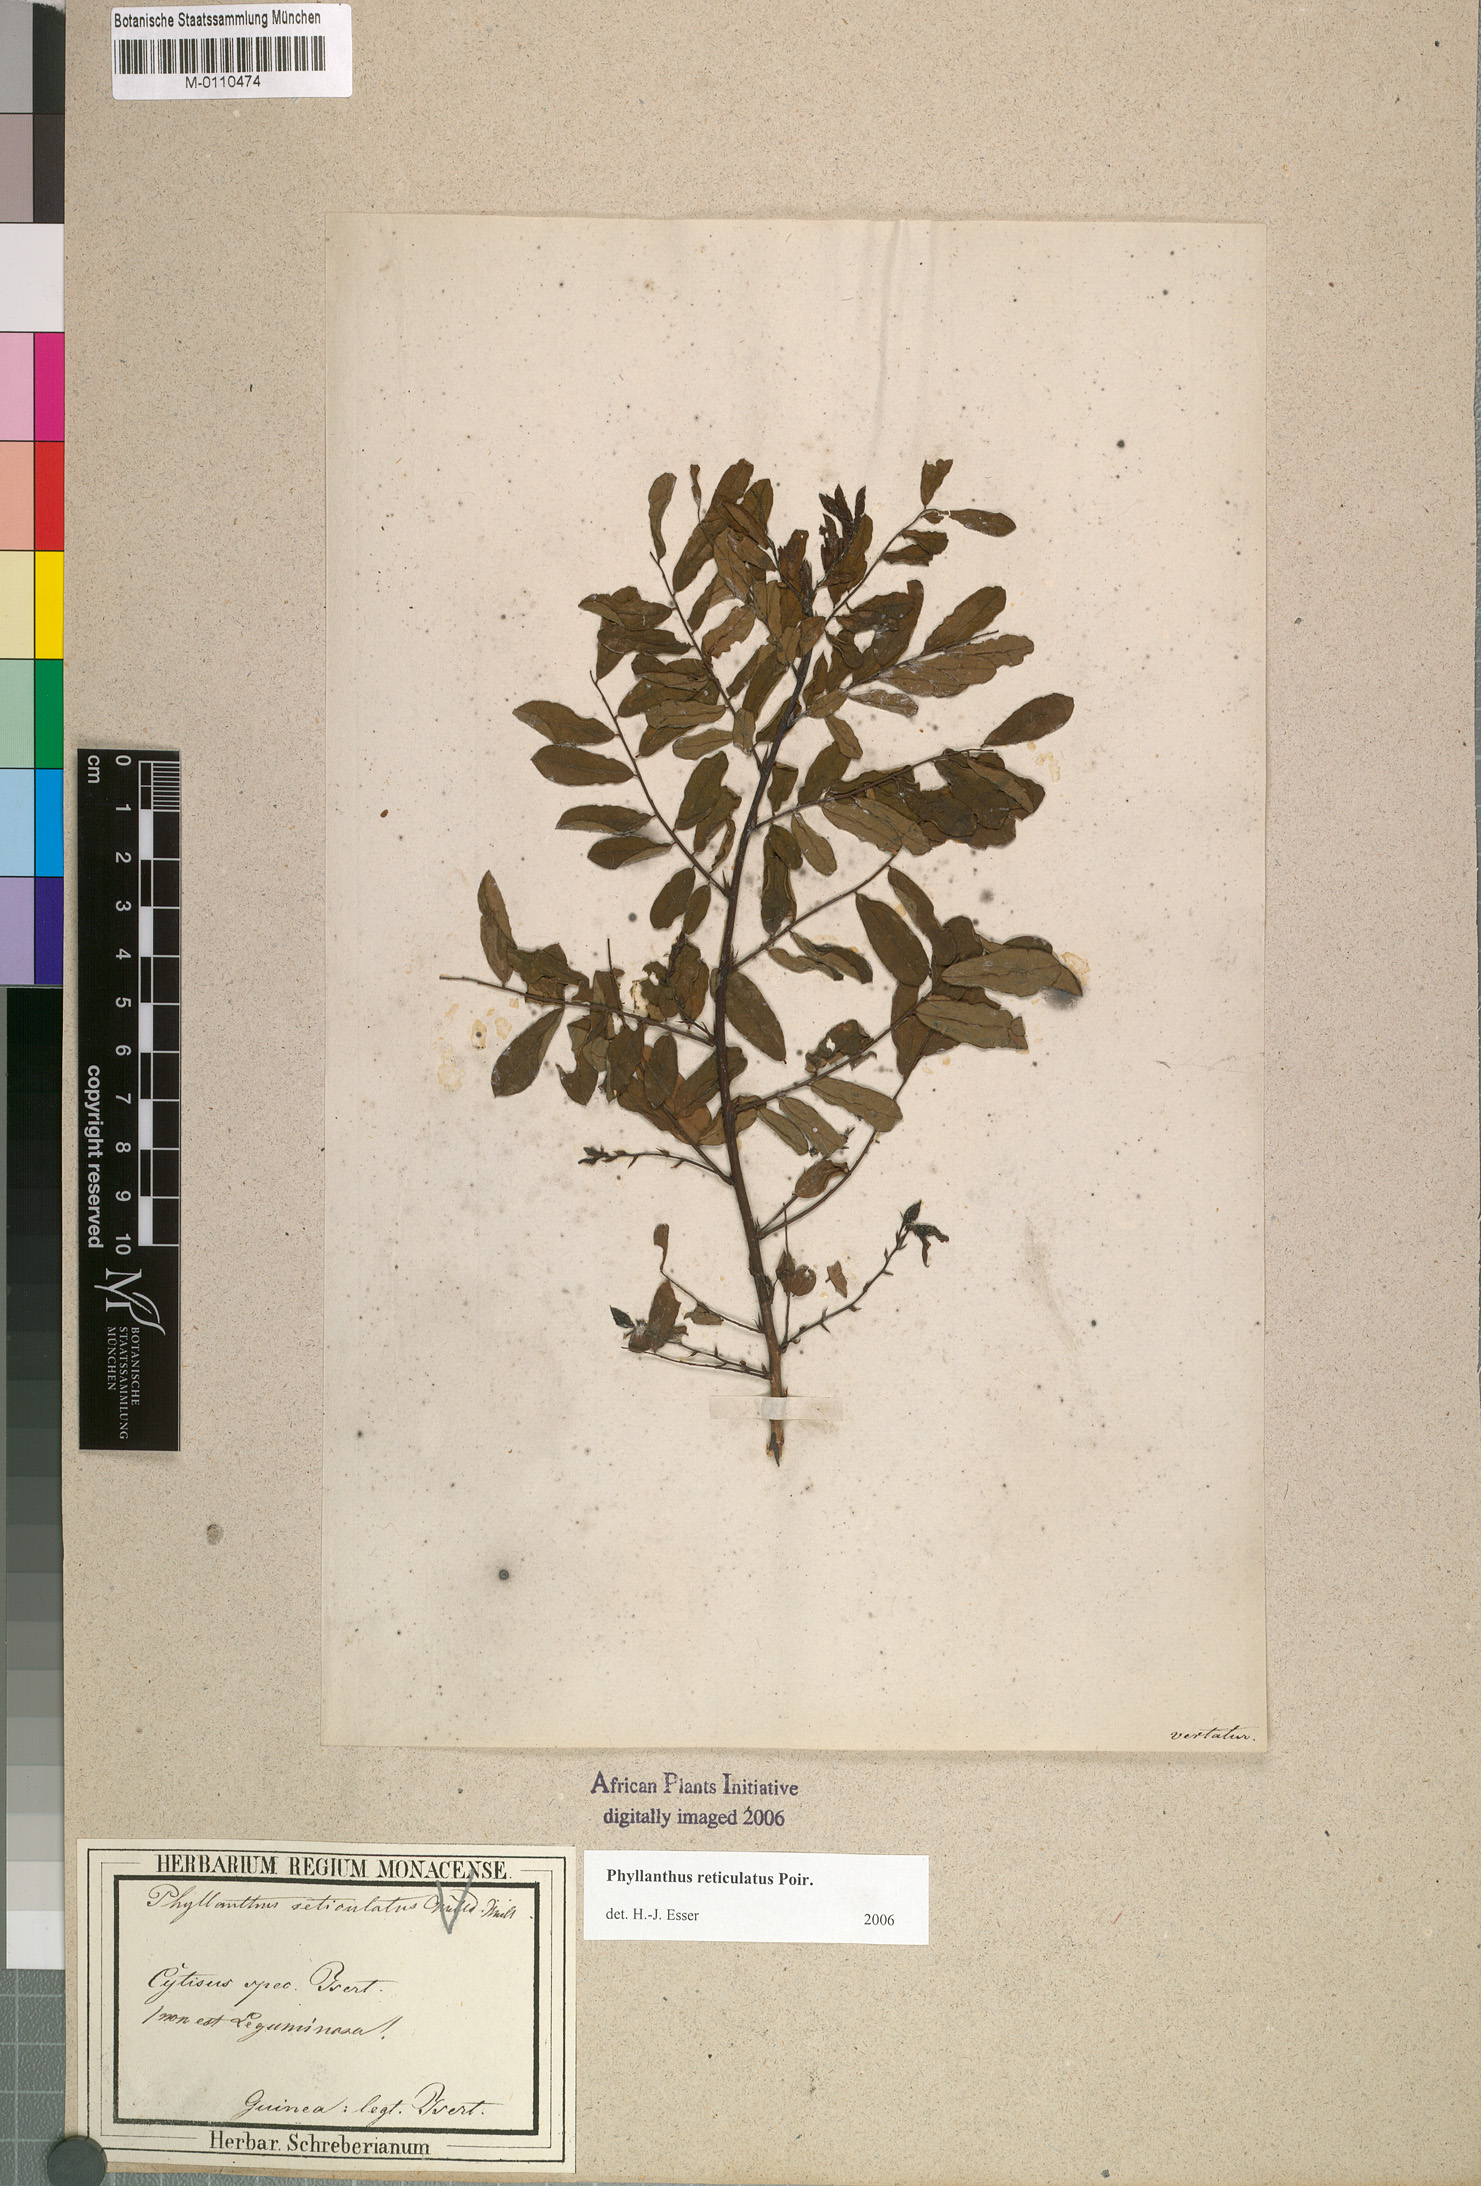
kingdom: Plantae
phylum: Tracheophyta
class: Magnoliopsida
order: Malpighiales
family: Phyllanthaceae
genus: Phyllanthus
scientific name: Phyllanthus reticulatus
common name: Potato bush
